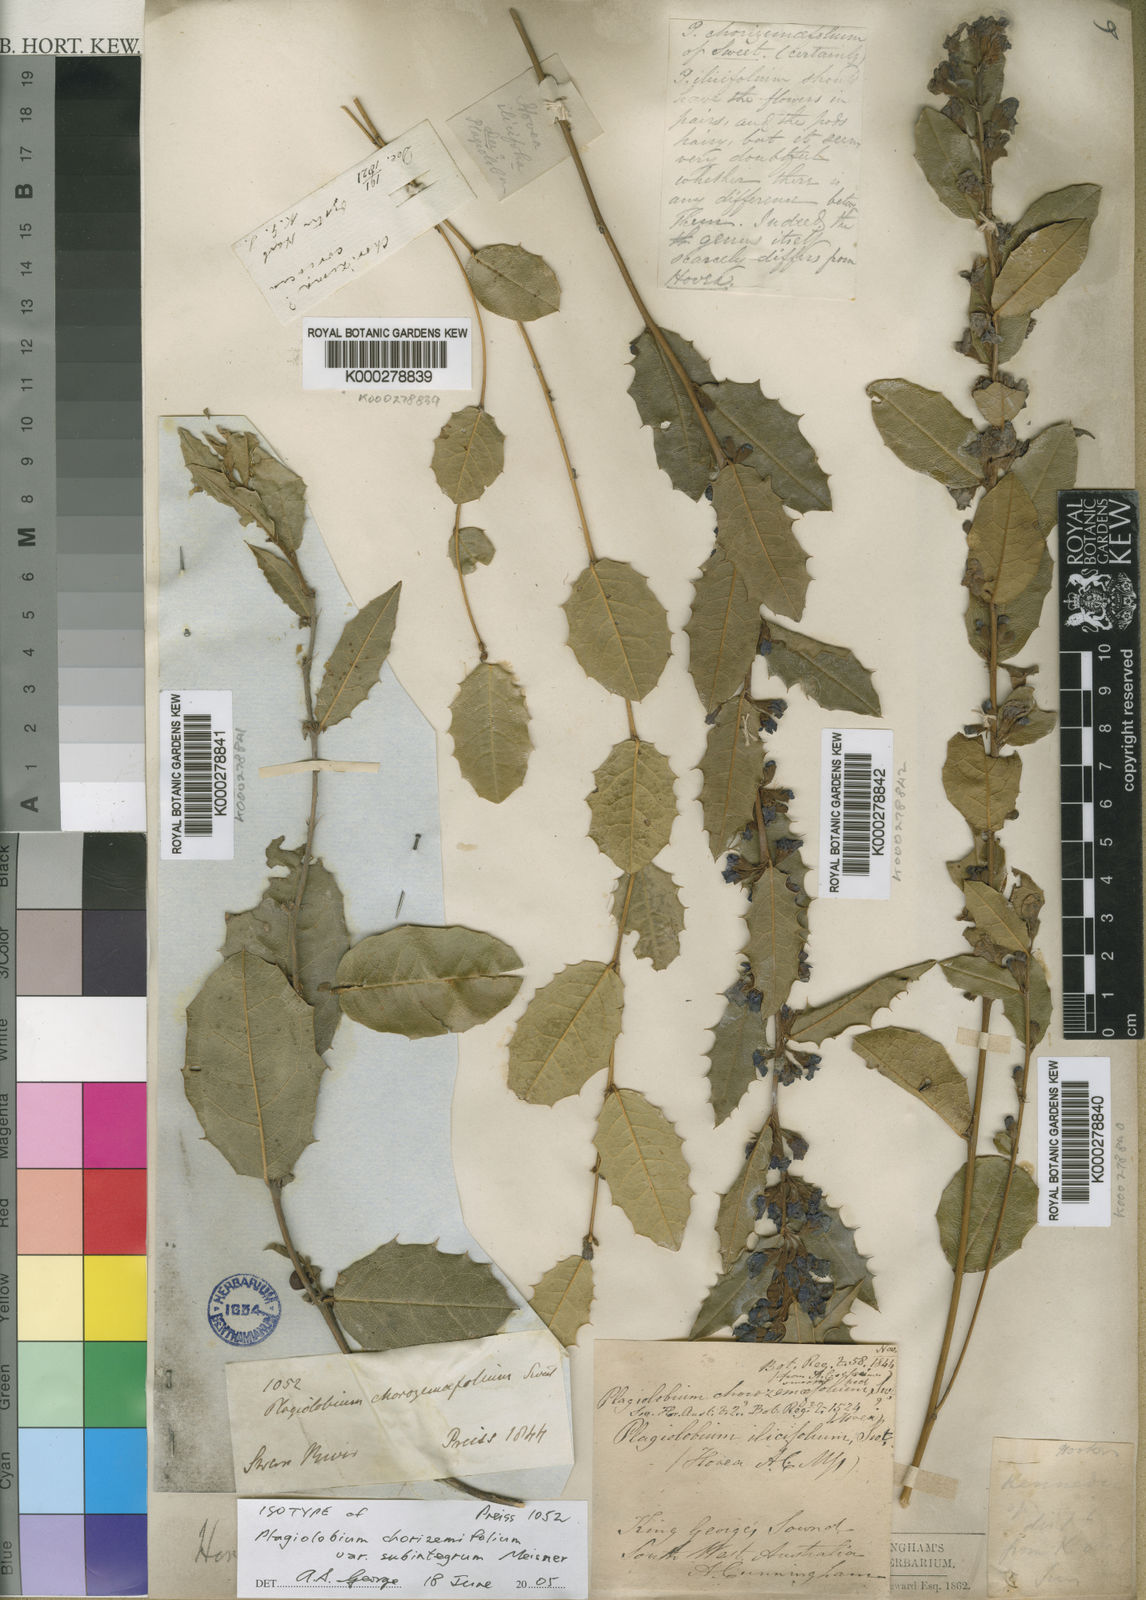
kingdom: Plantae
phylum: Tracheophyta
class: Magnoliopsida
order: Fabales
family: Fabaceae
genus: Hovea
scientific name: Hovea chorizemifolia
